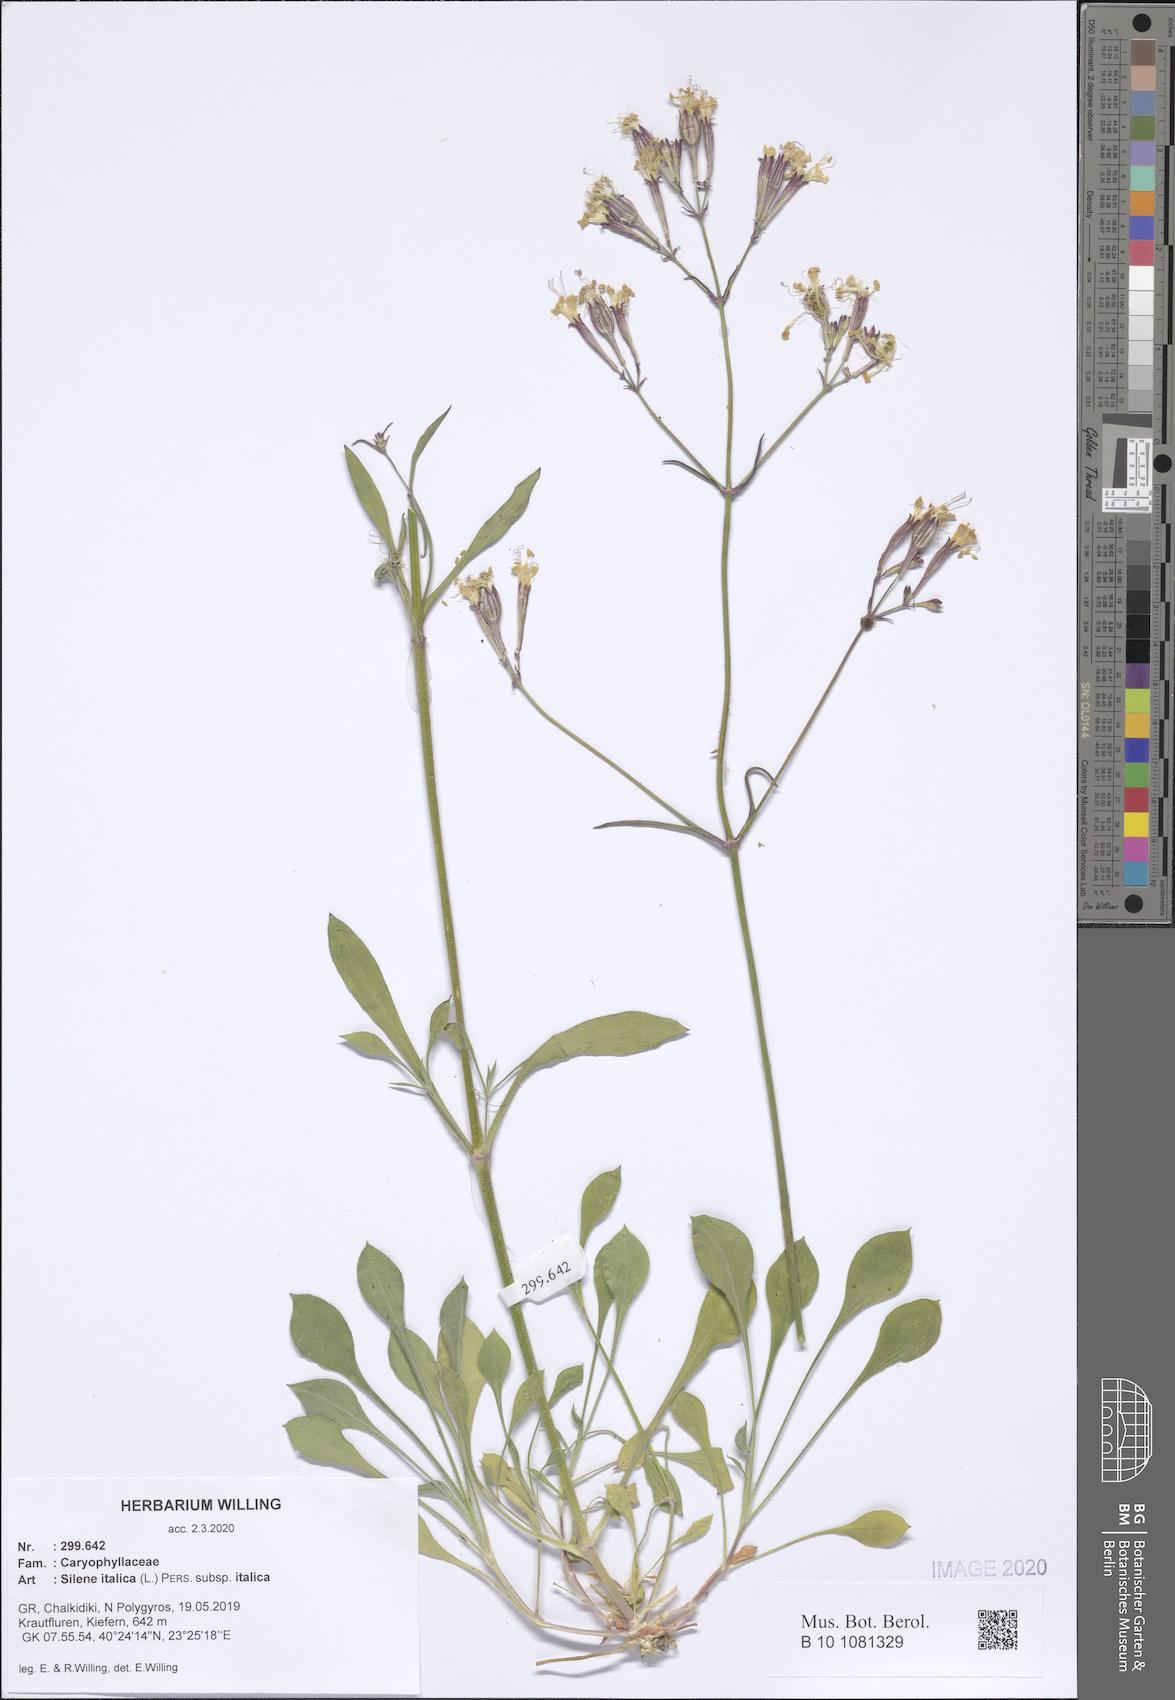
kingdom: Plantae
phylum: Tracheophyta
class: Magnoliopsida
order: Caryophyllales
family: Caryophyllaceae
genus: Silene
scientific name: Silene italica
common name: Italian catchfly
